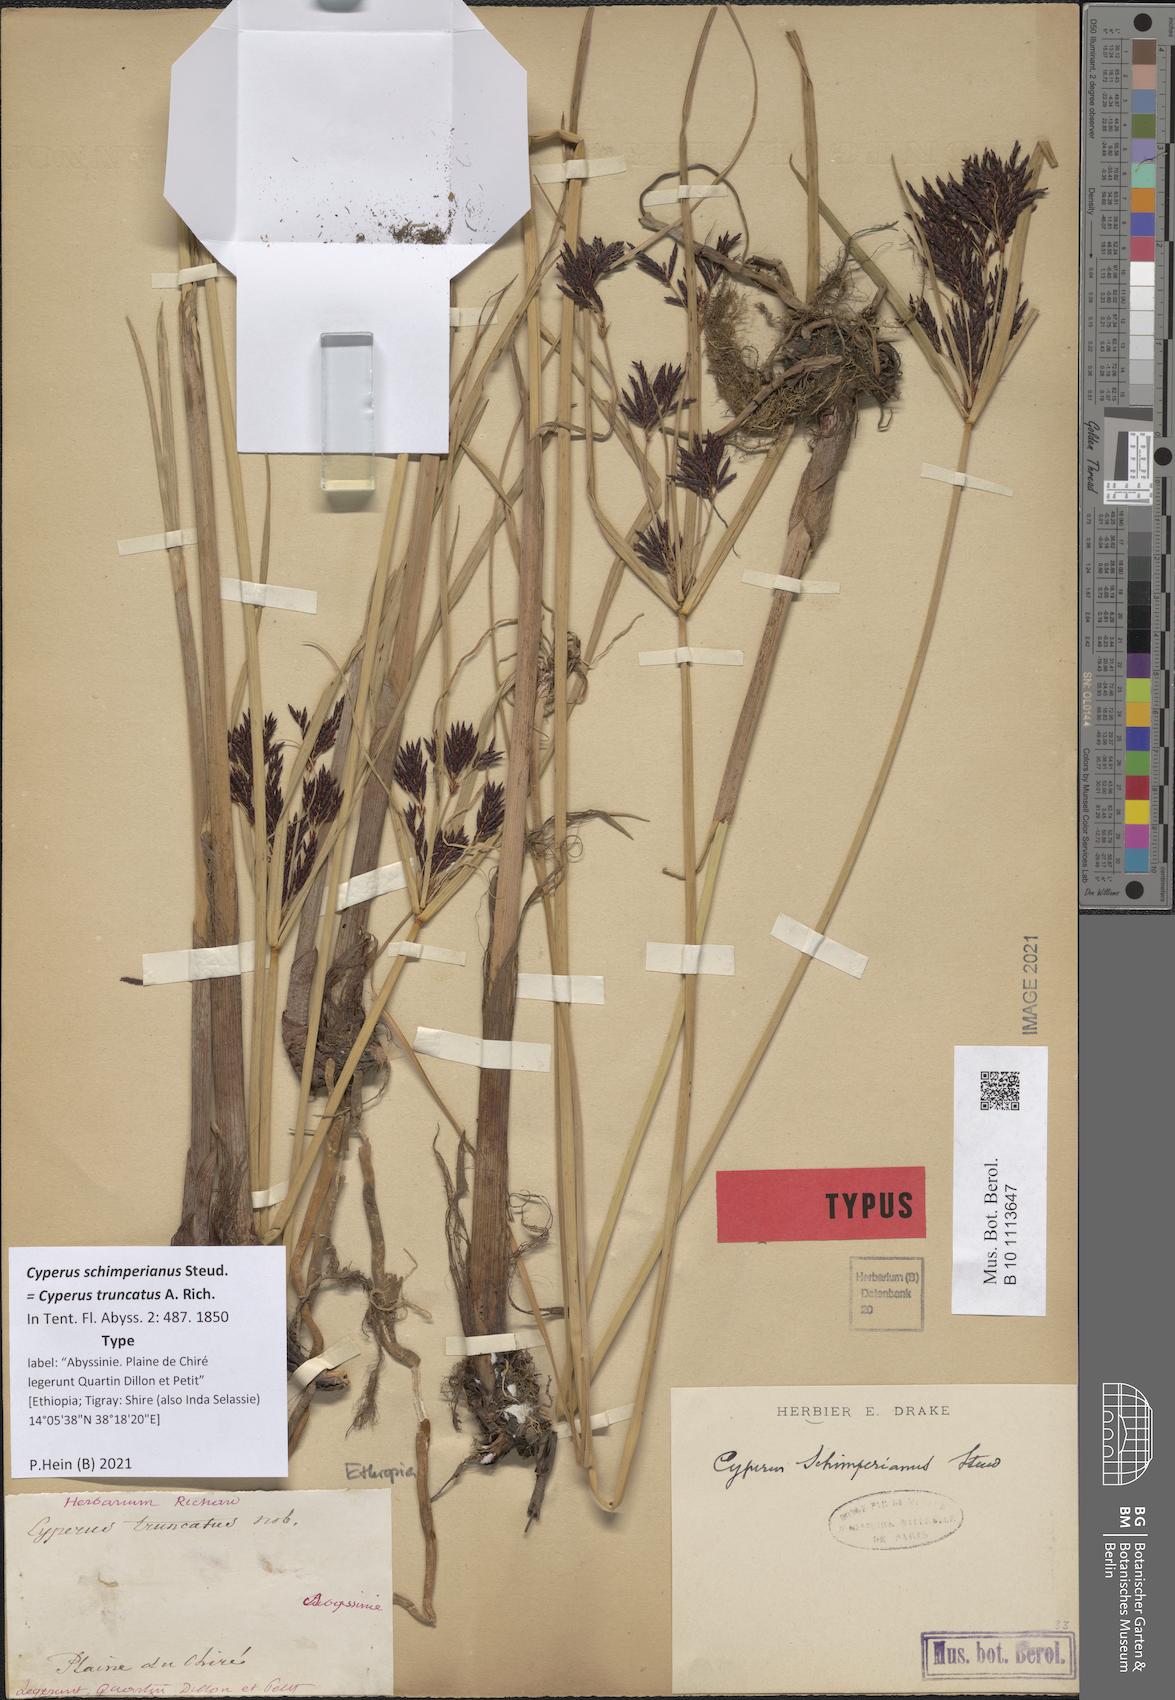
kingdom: Plantae
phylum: Tracheophyta
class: Liliopsida
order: Poales
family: Cyperaceae
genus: Cyperus
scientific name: Cyperus schimperianus
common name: Schimper flatsedge
